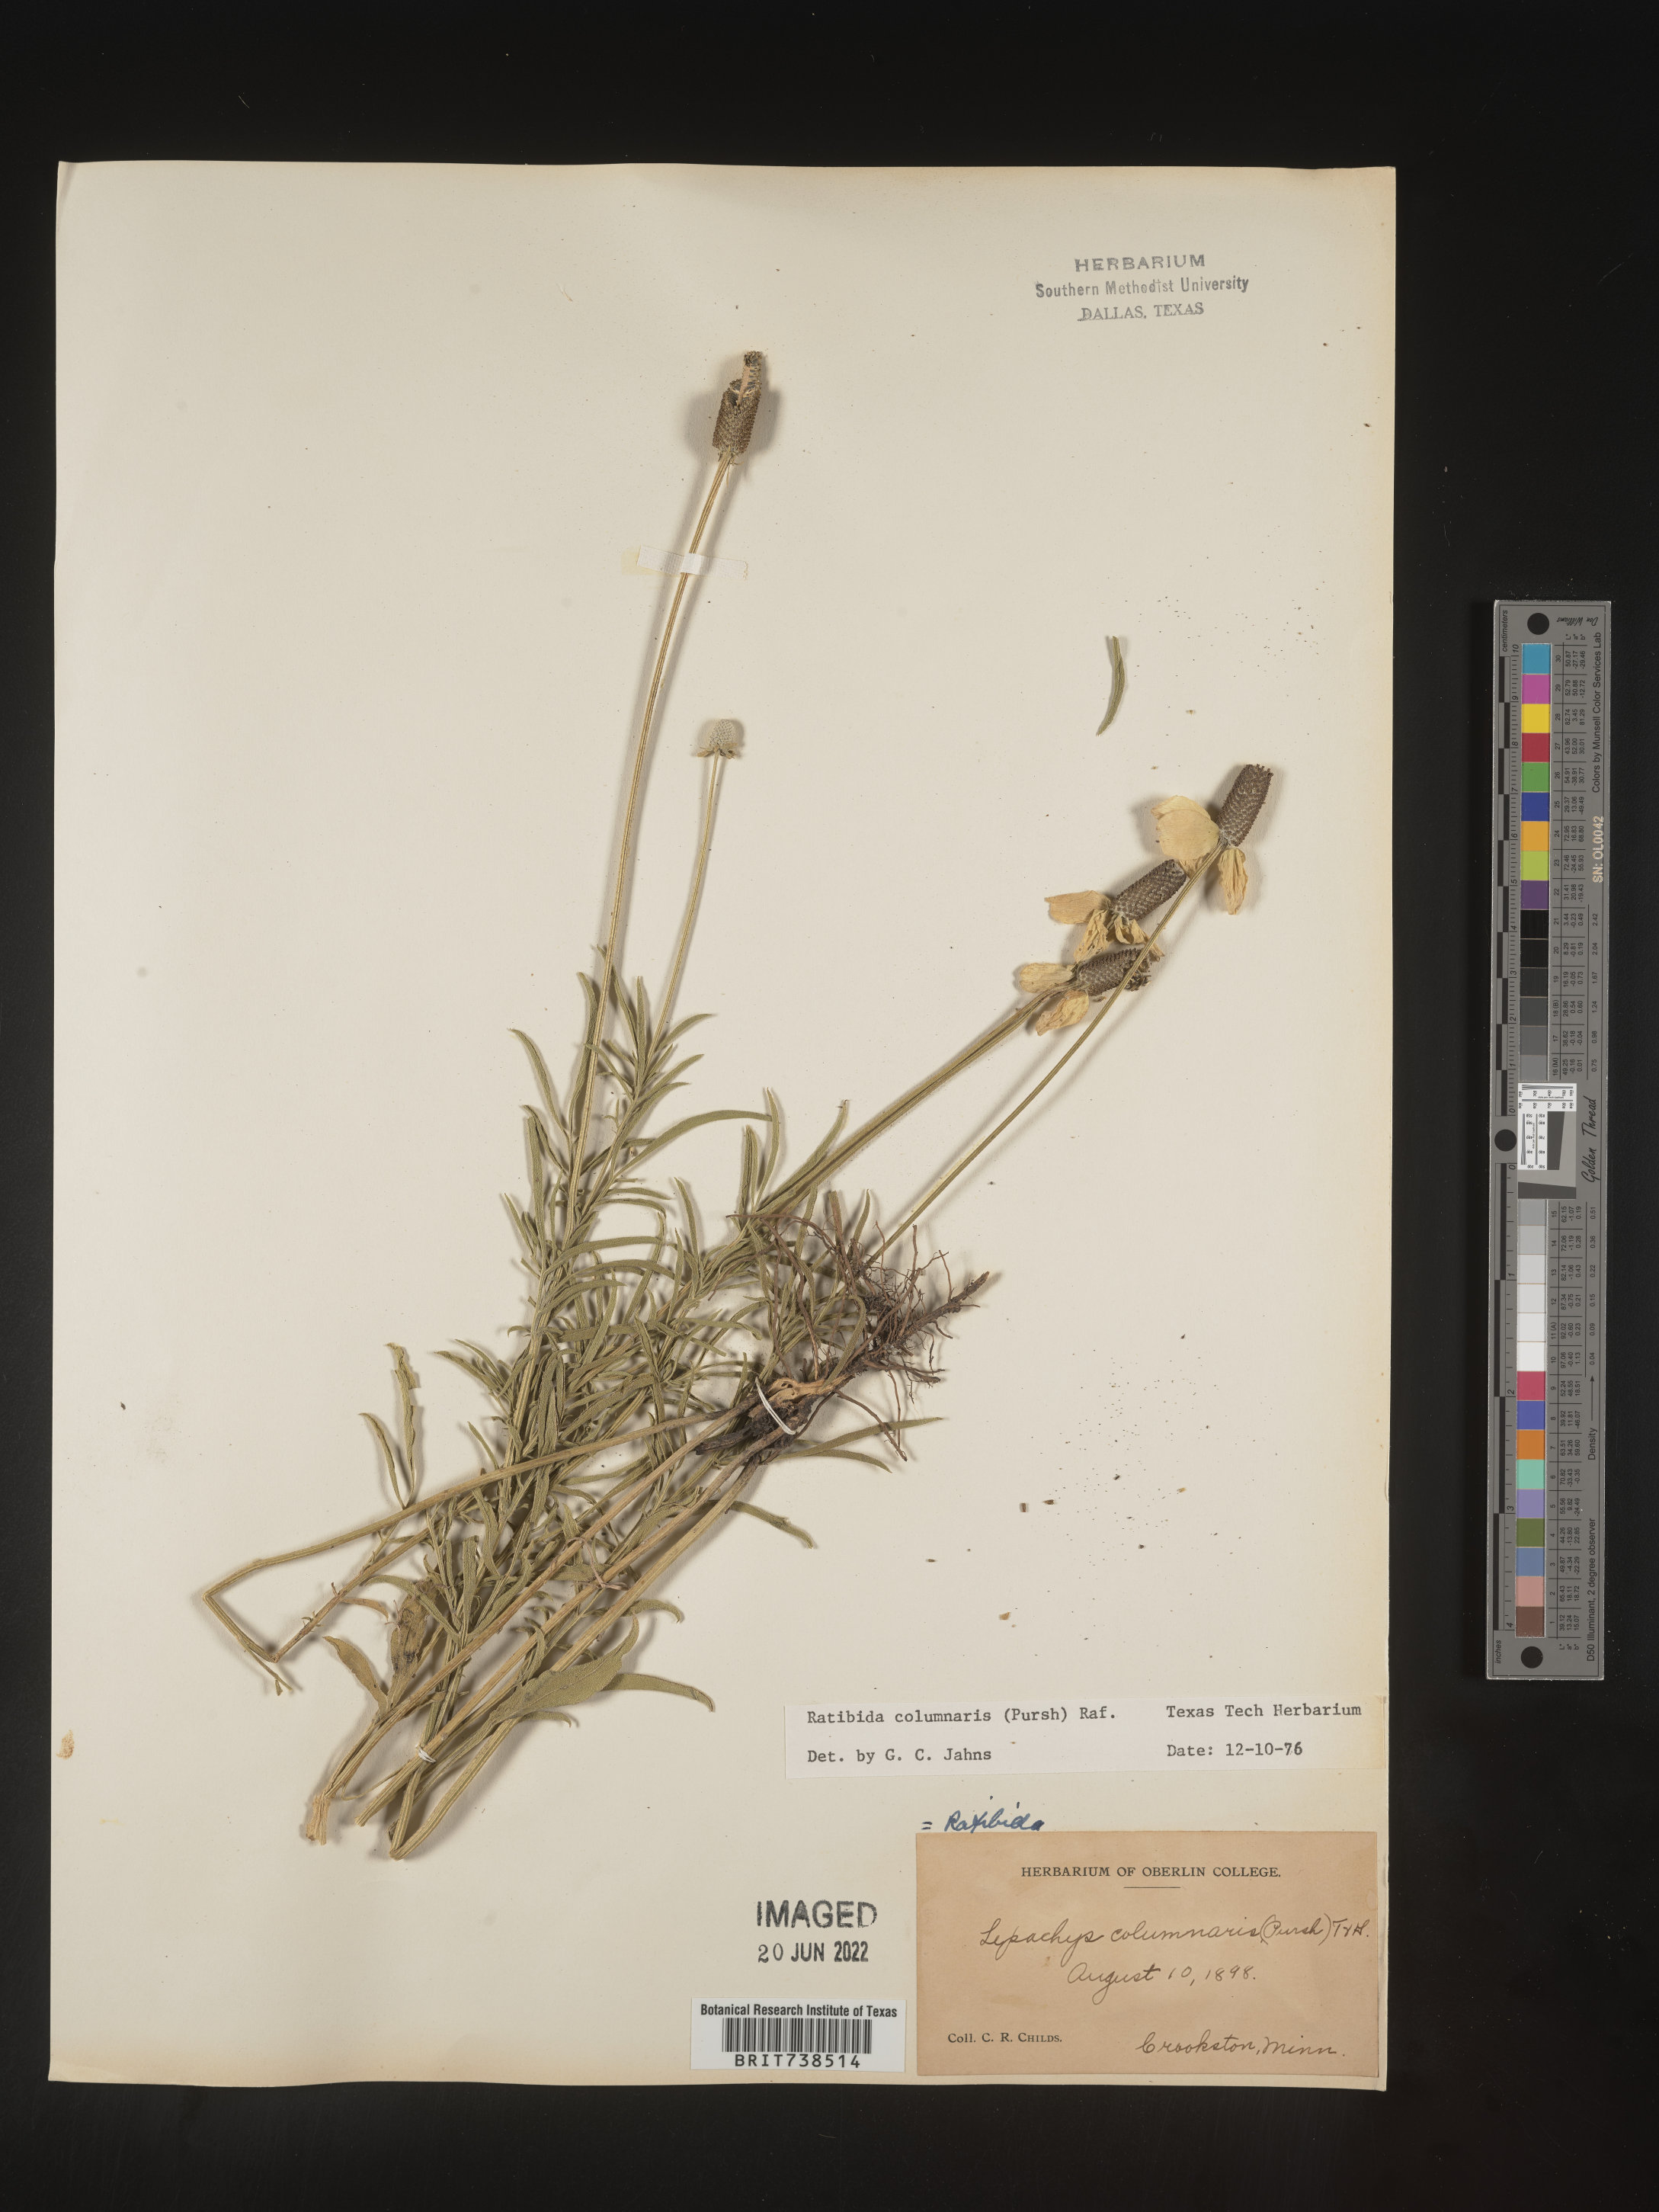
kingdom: Plantae
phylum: Tracheophyta
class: Magnoliopsida
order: Asterales
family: Asteraceae
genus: Ratibida
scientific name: Ratibida columnifera
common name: Prairie coneflower
